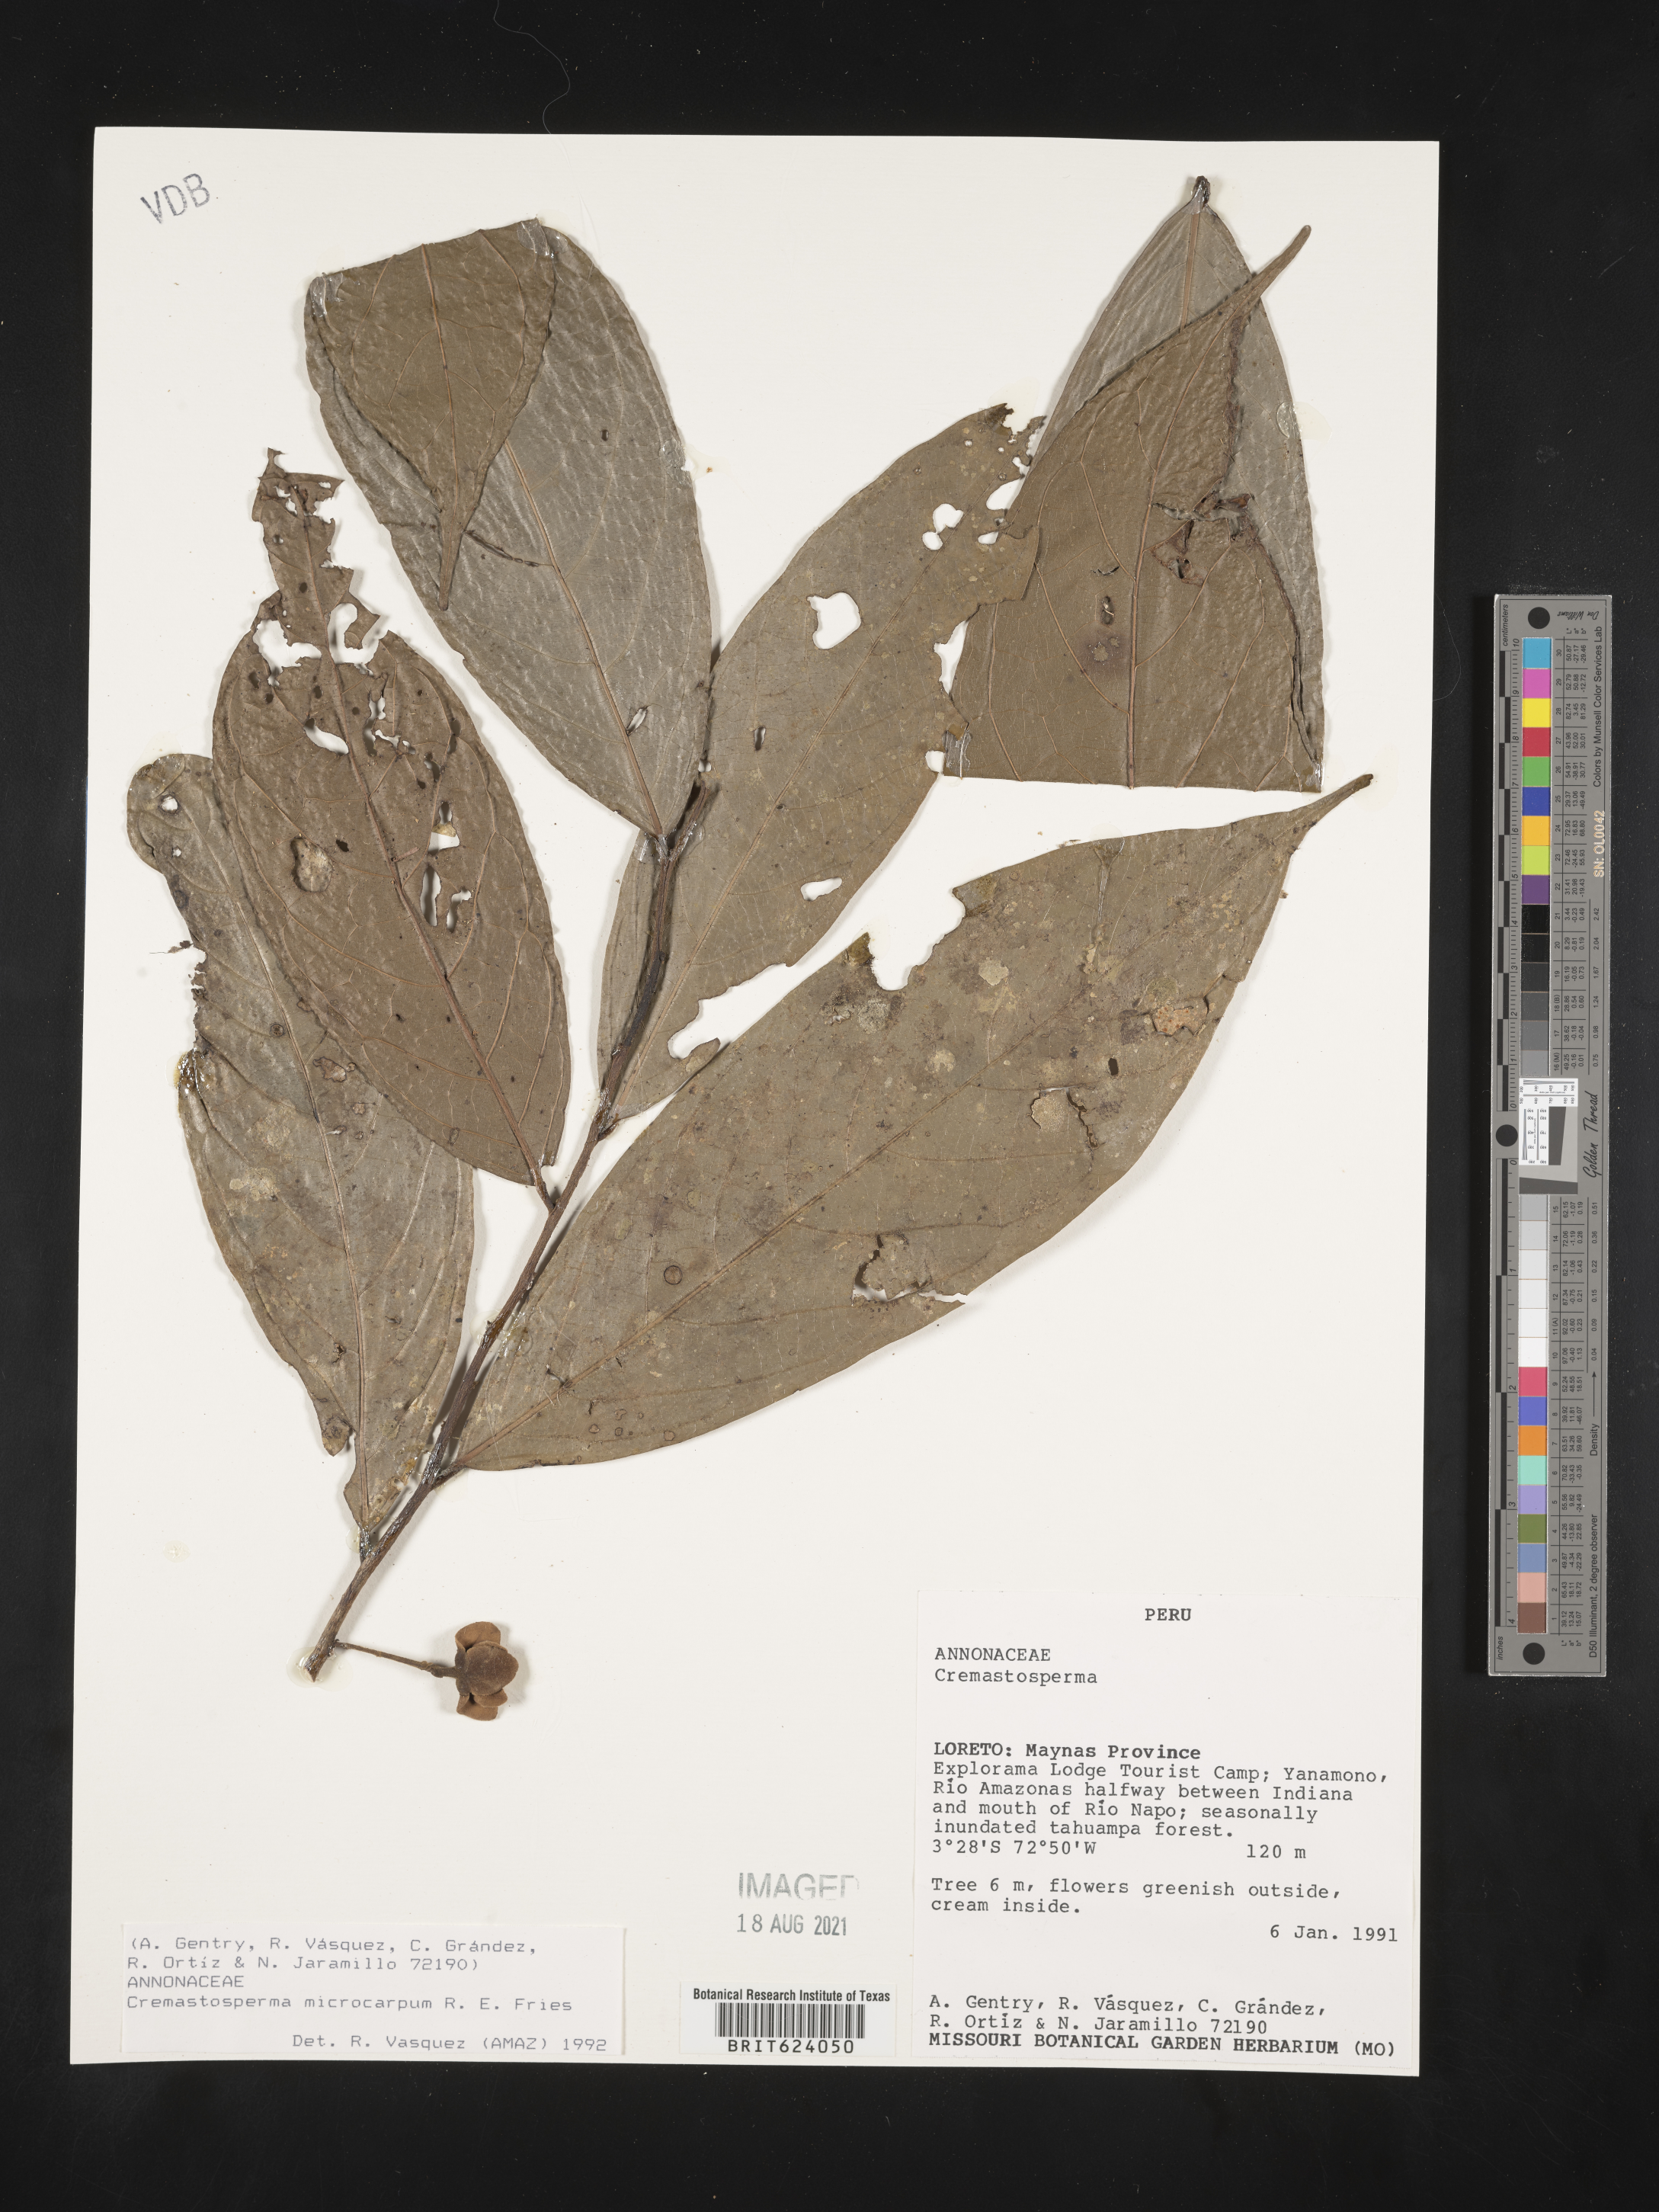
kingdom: Plantae
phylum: Tracheophyta
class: Magnoliopsida
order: Magnoliales
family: Annonaceae
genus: Cremastosperma
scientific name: Cremastosperma microcarpum
